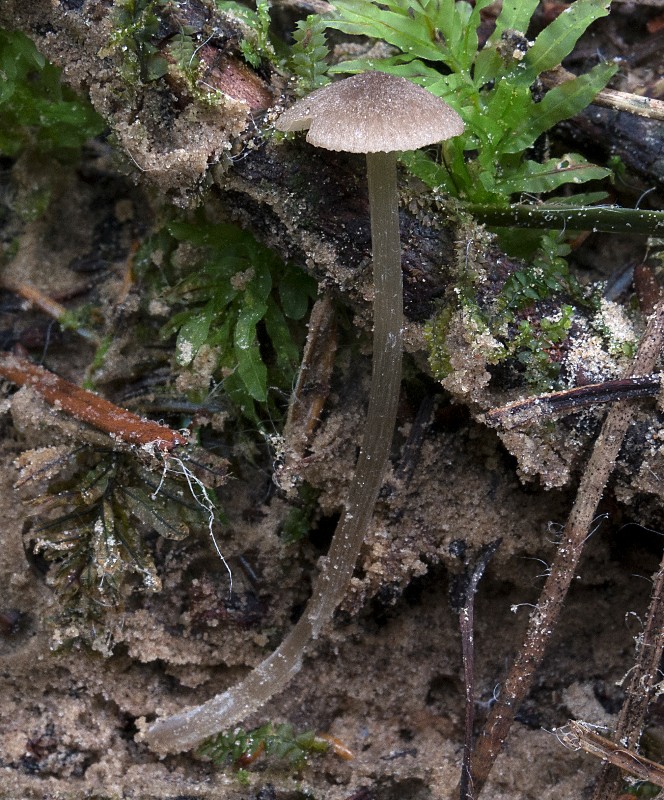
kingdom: Fungi
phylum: Basidiomycota
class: Agaricomycetes
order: Agaricales
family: Entolomataceae
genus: Entoloma
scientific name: Entoloma
